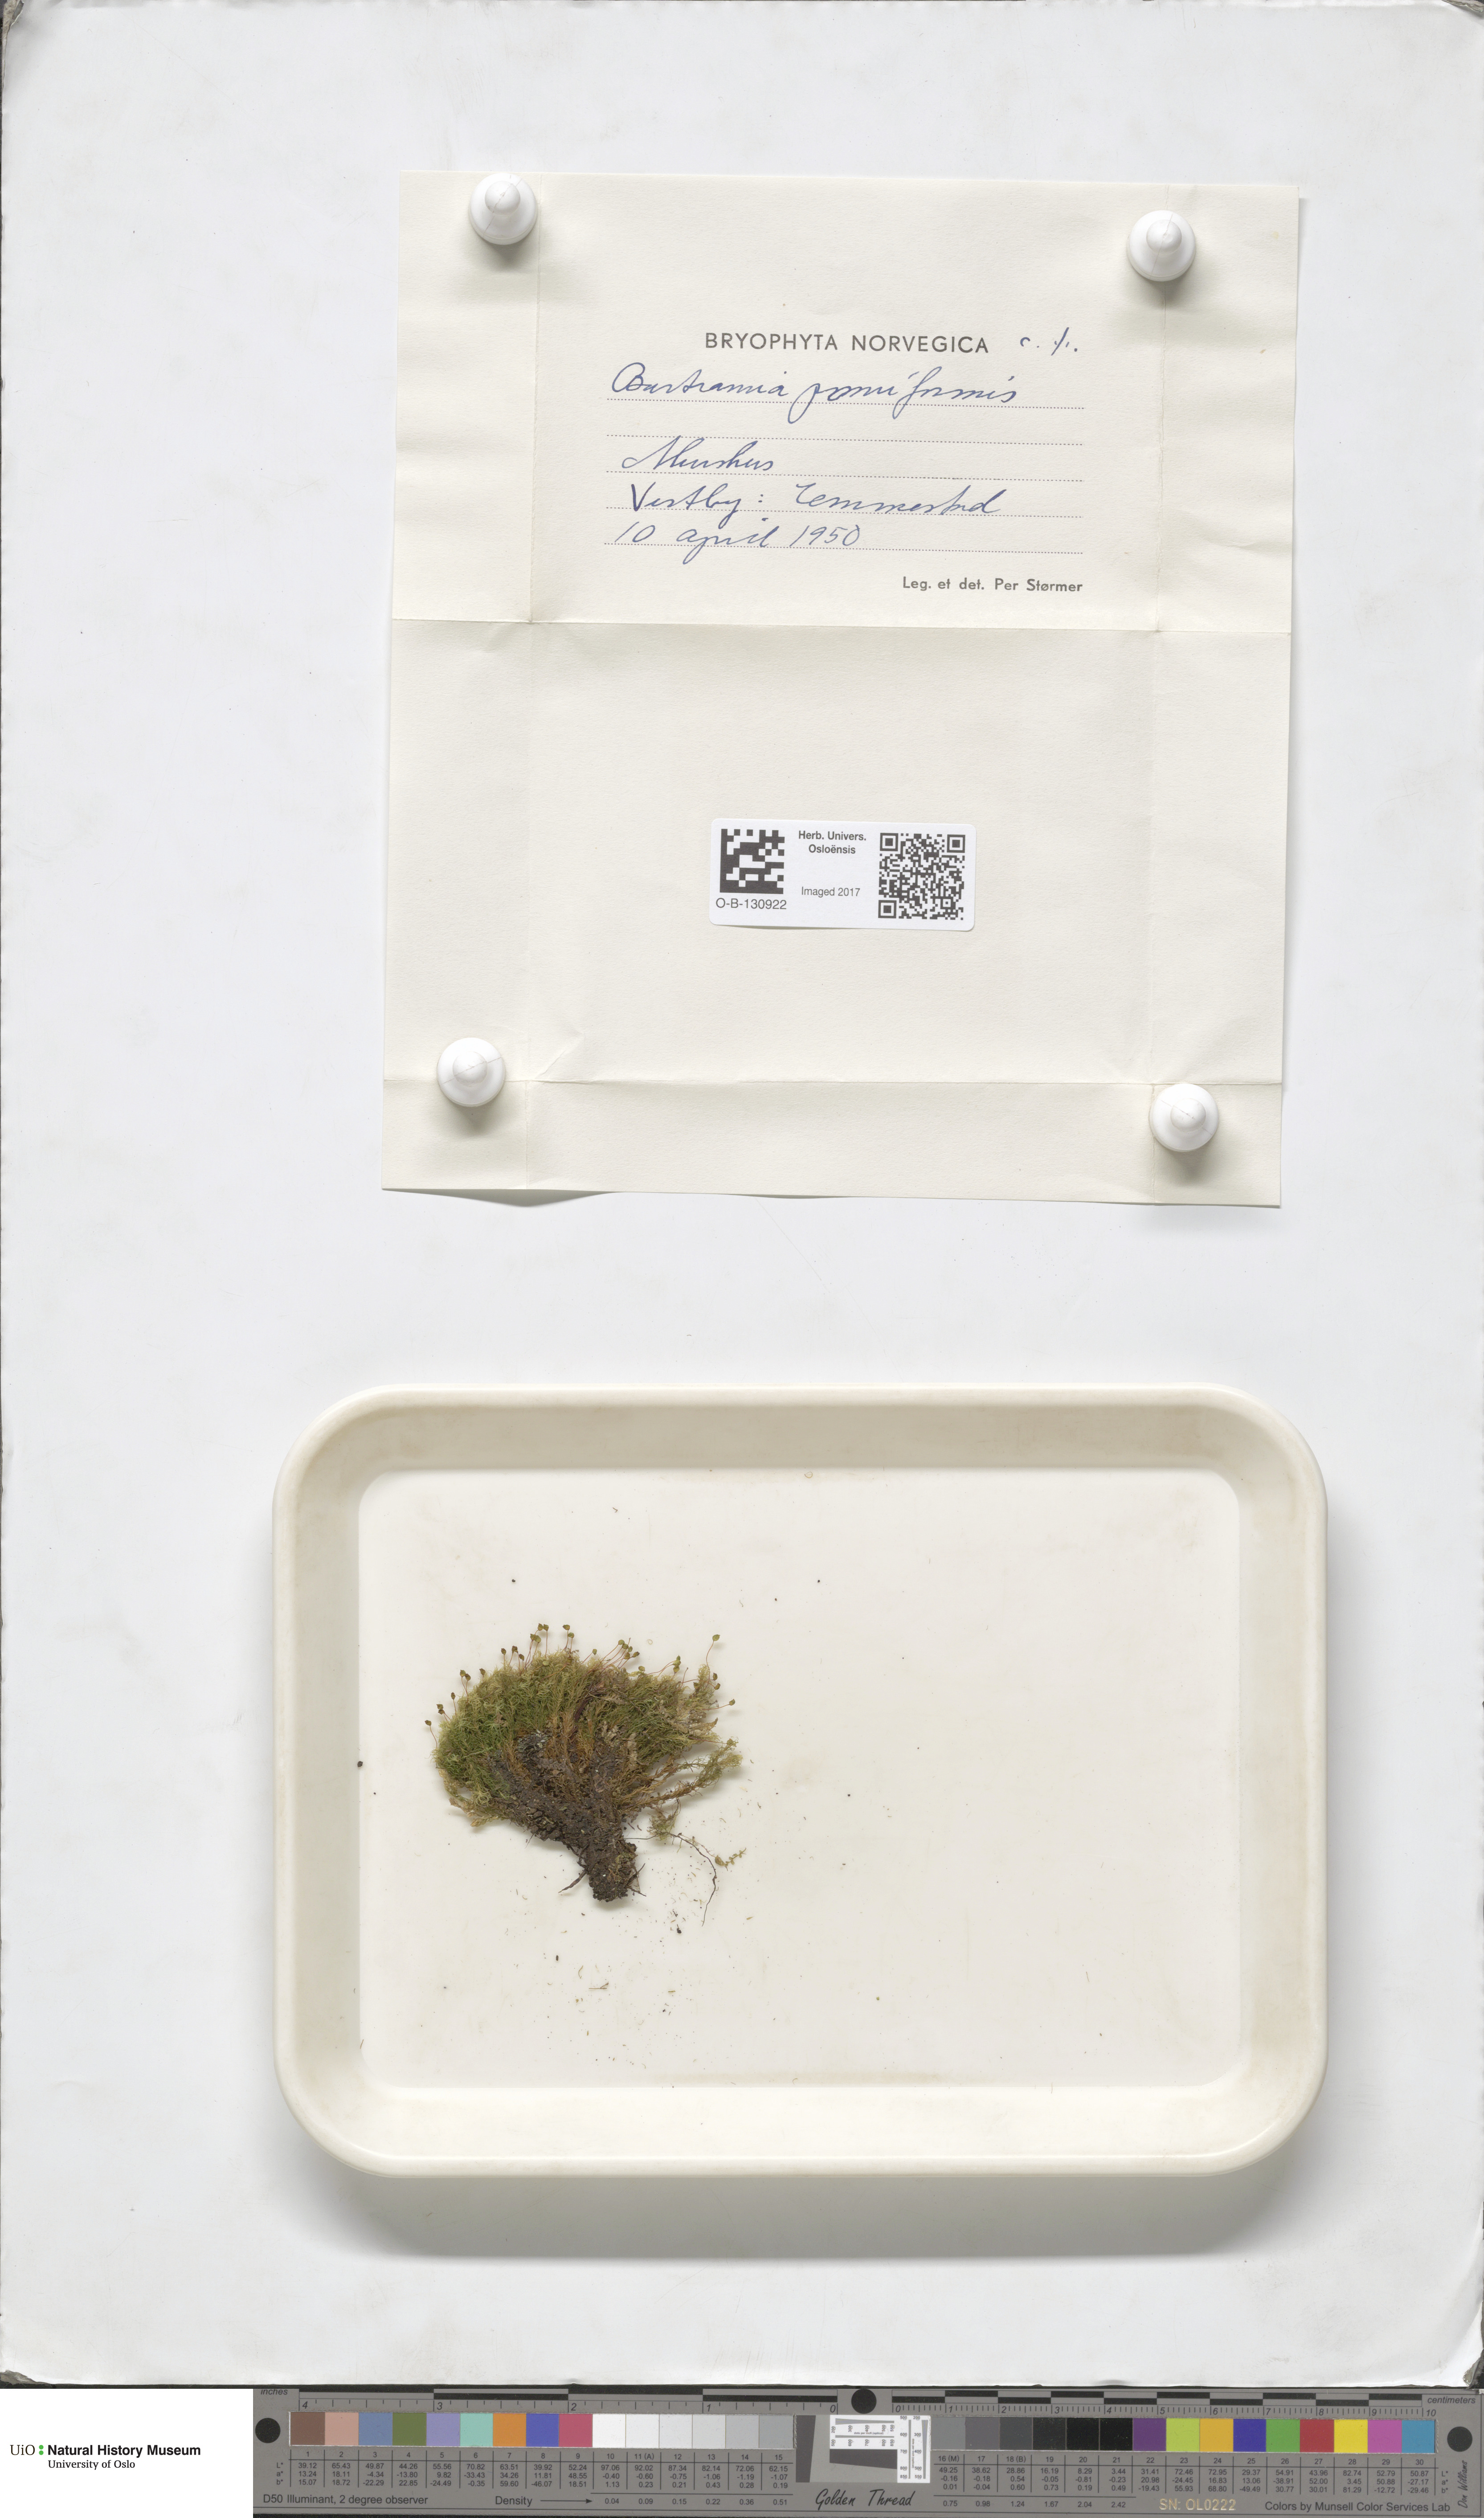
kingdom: Plantae
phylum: Bryophyta
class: Bryopsida
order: Bartramiales
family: Bartramiaceae
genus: Bartramia
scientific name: Bartramia pomiformis
